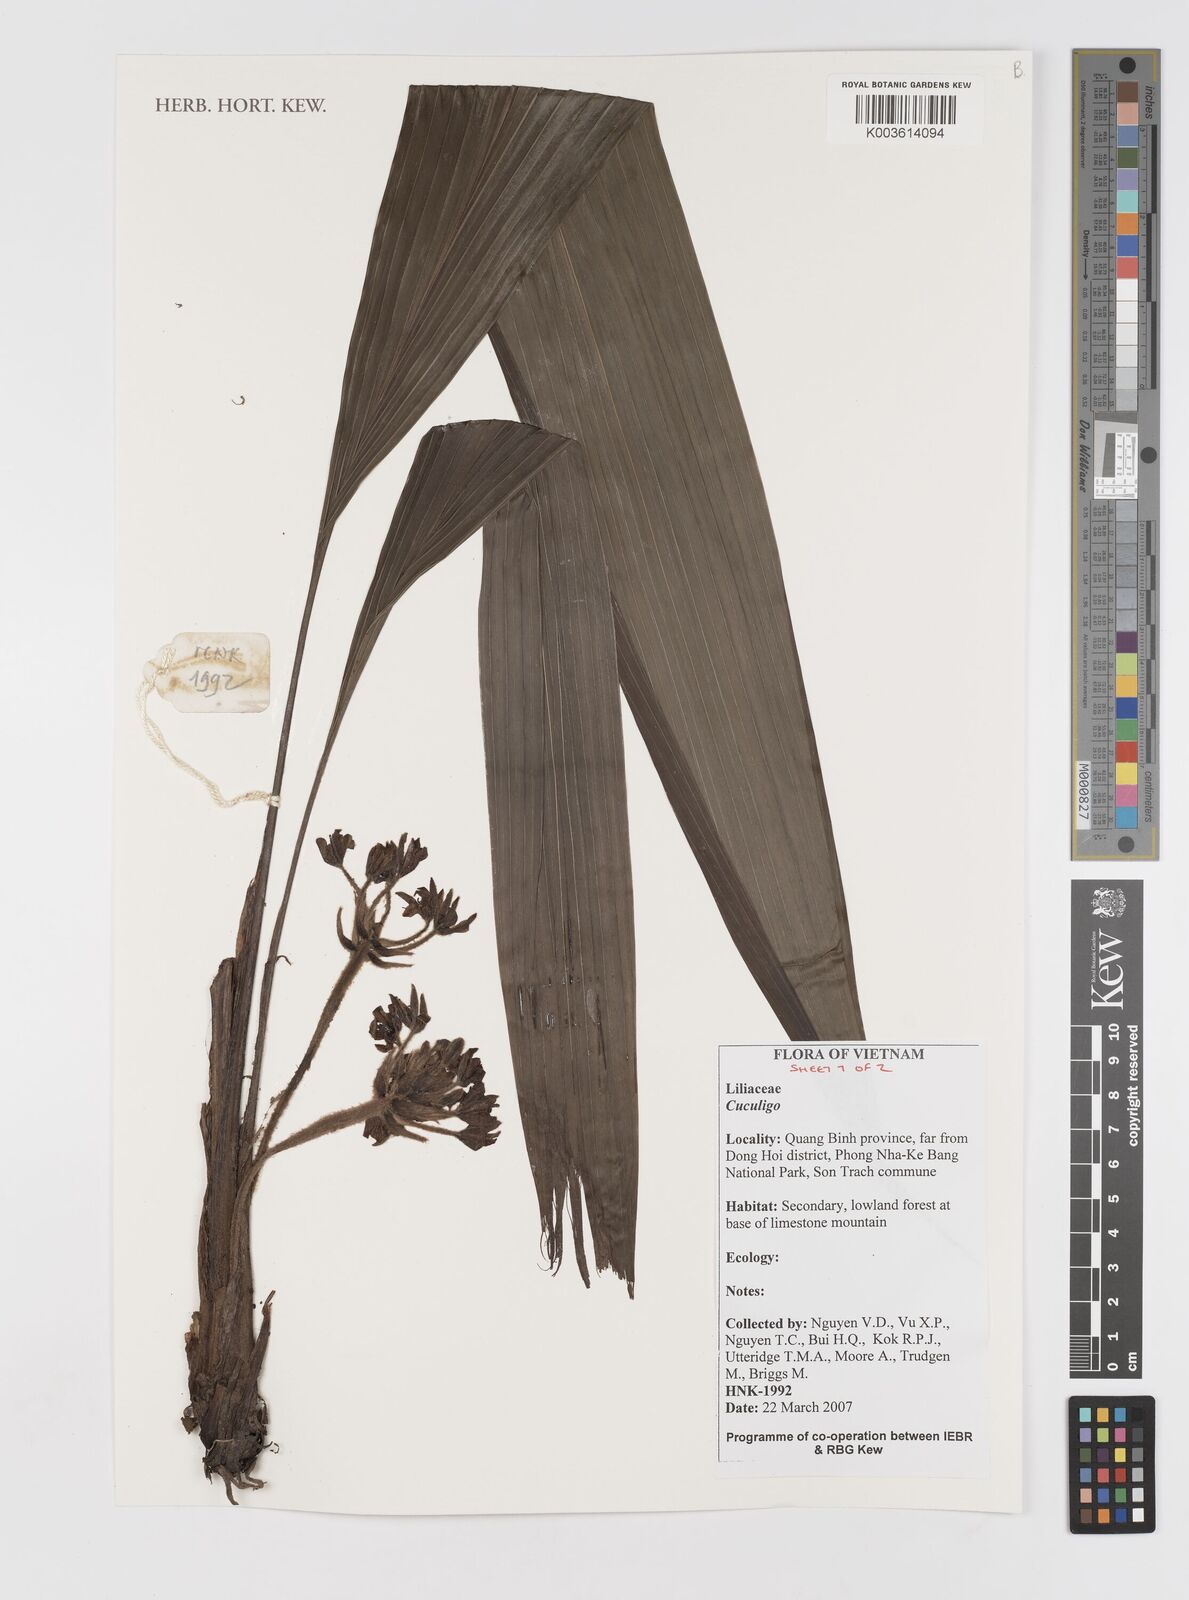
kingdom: Plantae
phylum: Tracheophyta
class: Liliopsida
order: Asparagales
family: Hypoxidaceae
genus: Curculigo
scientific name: Curculigo
